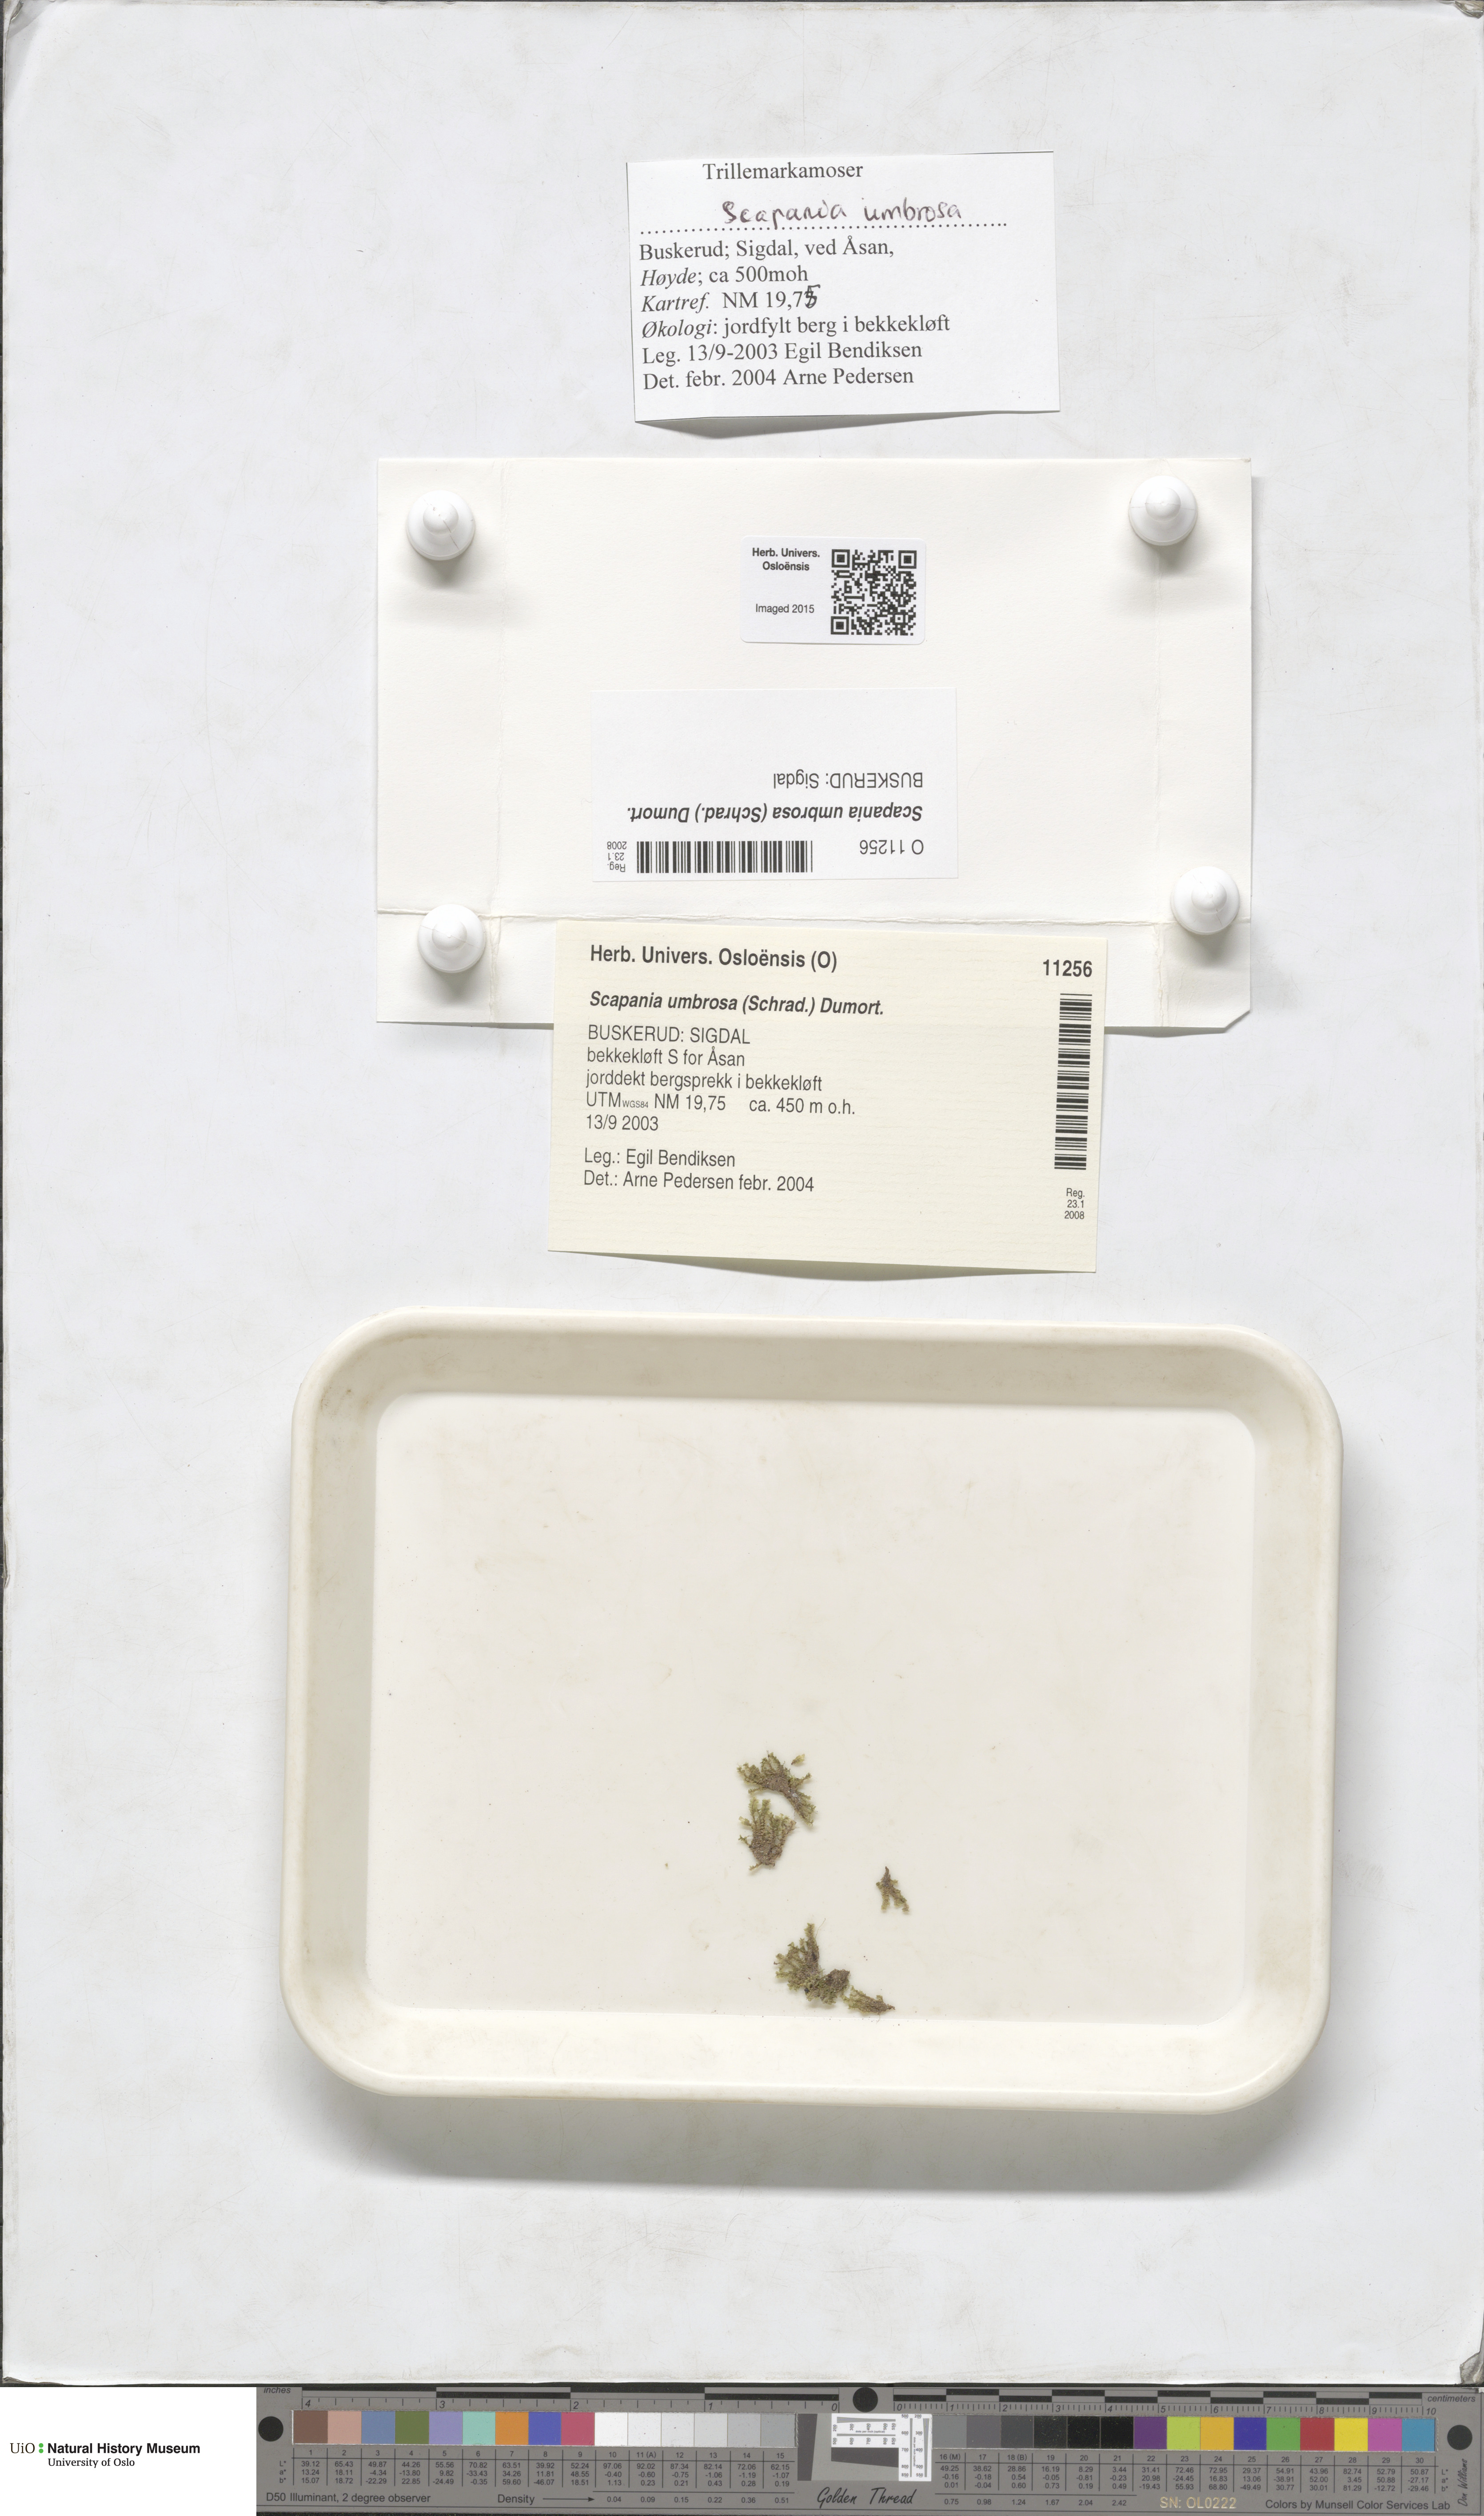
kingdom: Plantae
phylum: Marchantiophyta
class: Jungermanniopsida
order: Jungermanniales
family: Scapaniaceae
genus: Scapania
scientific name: Scapania umbrosa
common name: Shady earwort
